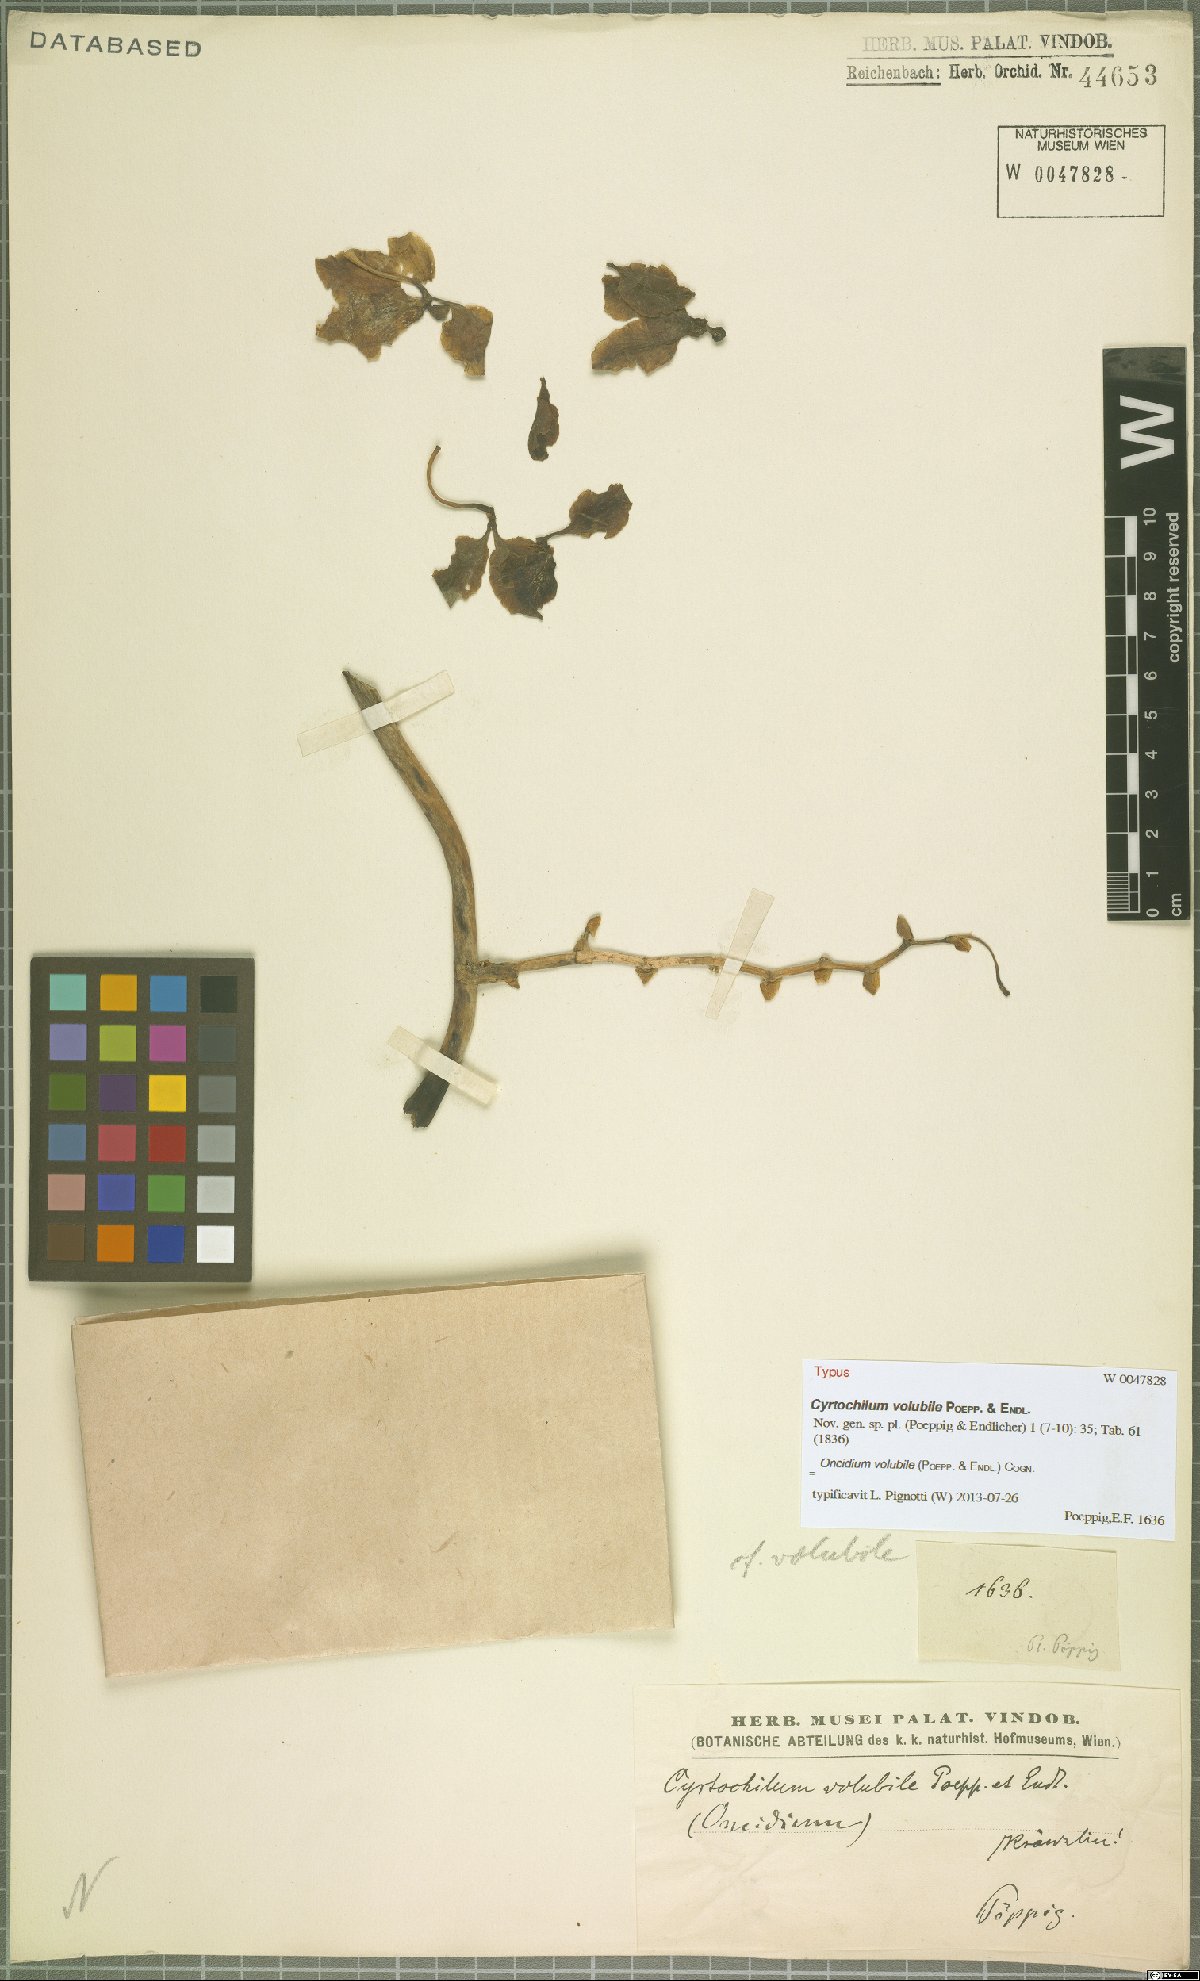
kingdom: Plantae
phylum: Tracheophyta
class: Liliopsida
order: Asparagales
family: Orchidaceae
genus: Cyrtochilum
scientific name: Cyrtochilum volubile
